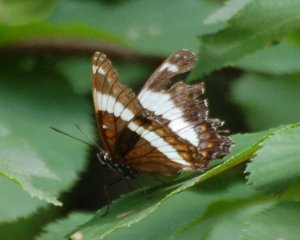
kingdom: Animalia
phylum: Arthropoda
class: Insecta
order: Lepidoptera
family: Nymphalidae
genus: Limenitis
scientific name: Limenitis arthemis
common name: Red-spotted Admiral
